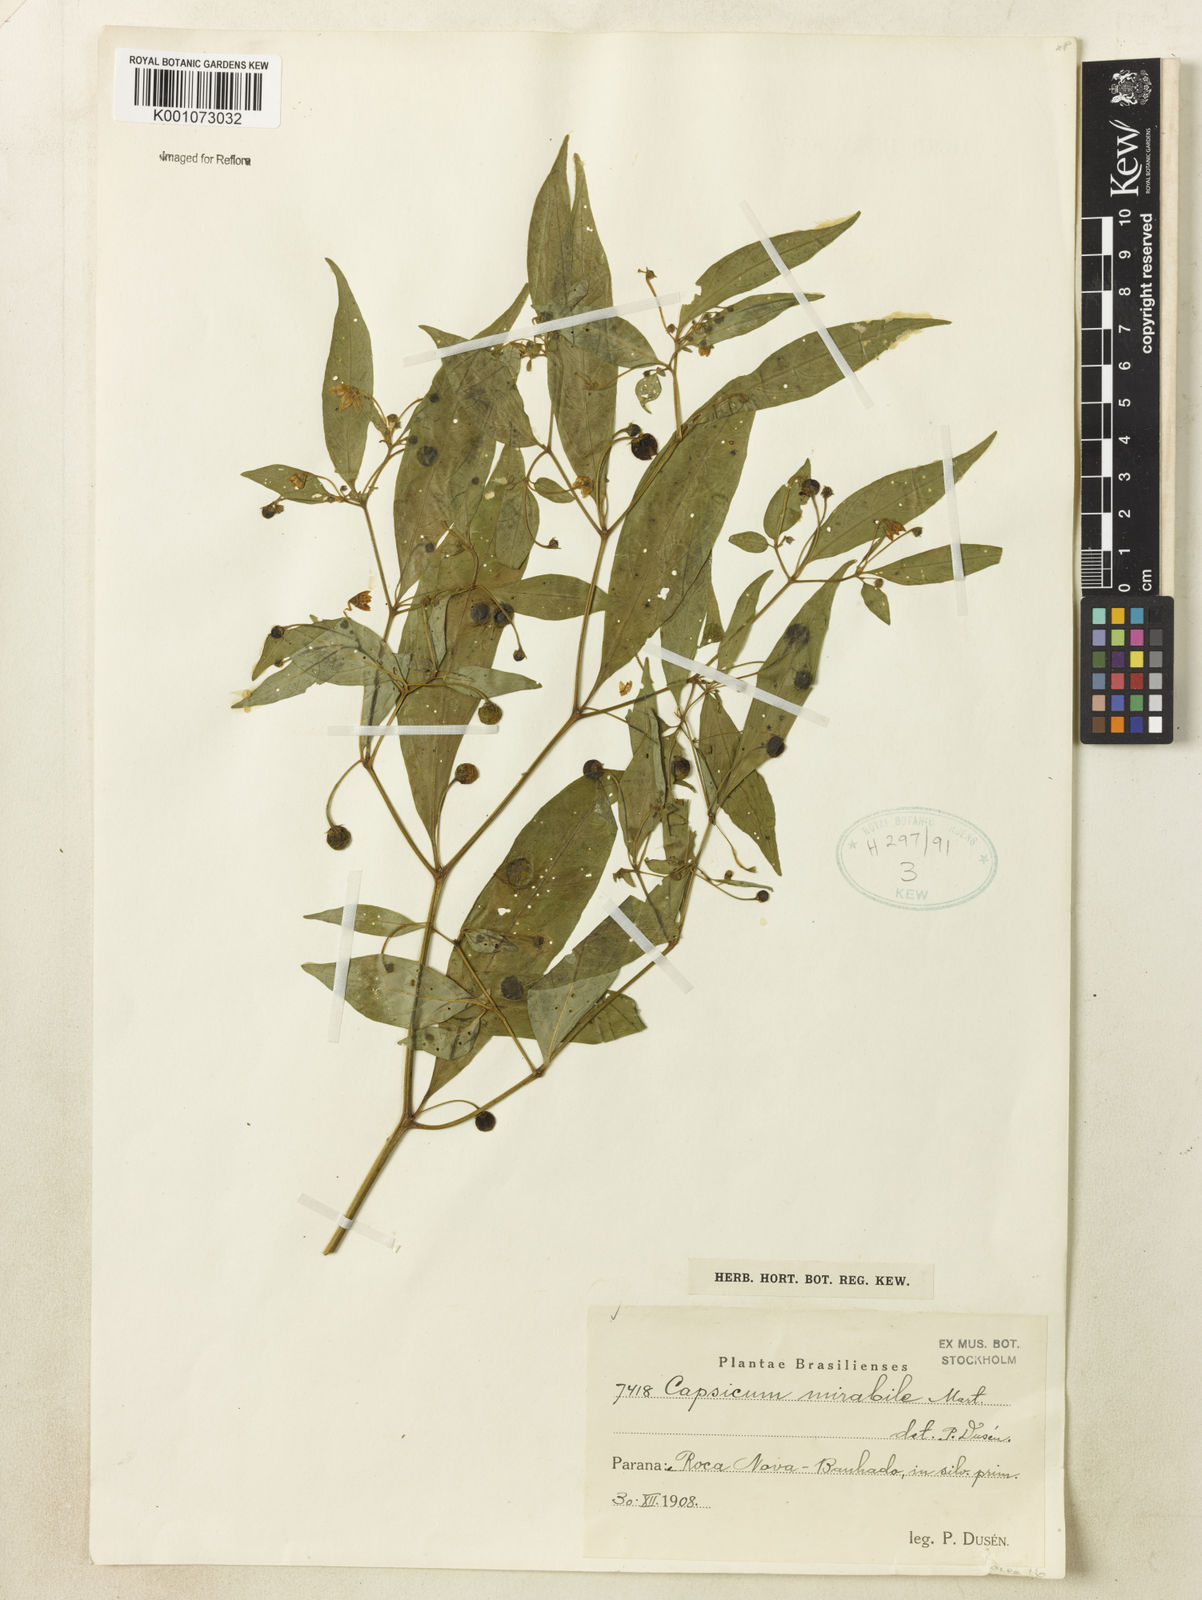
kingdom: Plantae
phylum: Tracheophyta
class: Magnoliopsida
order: Solanales
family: Solanaceae
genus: Capsicum
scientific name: Capsicum
